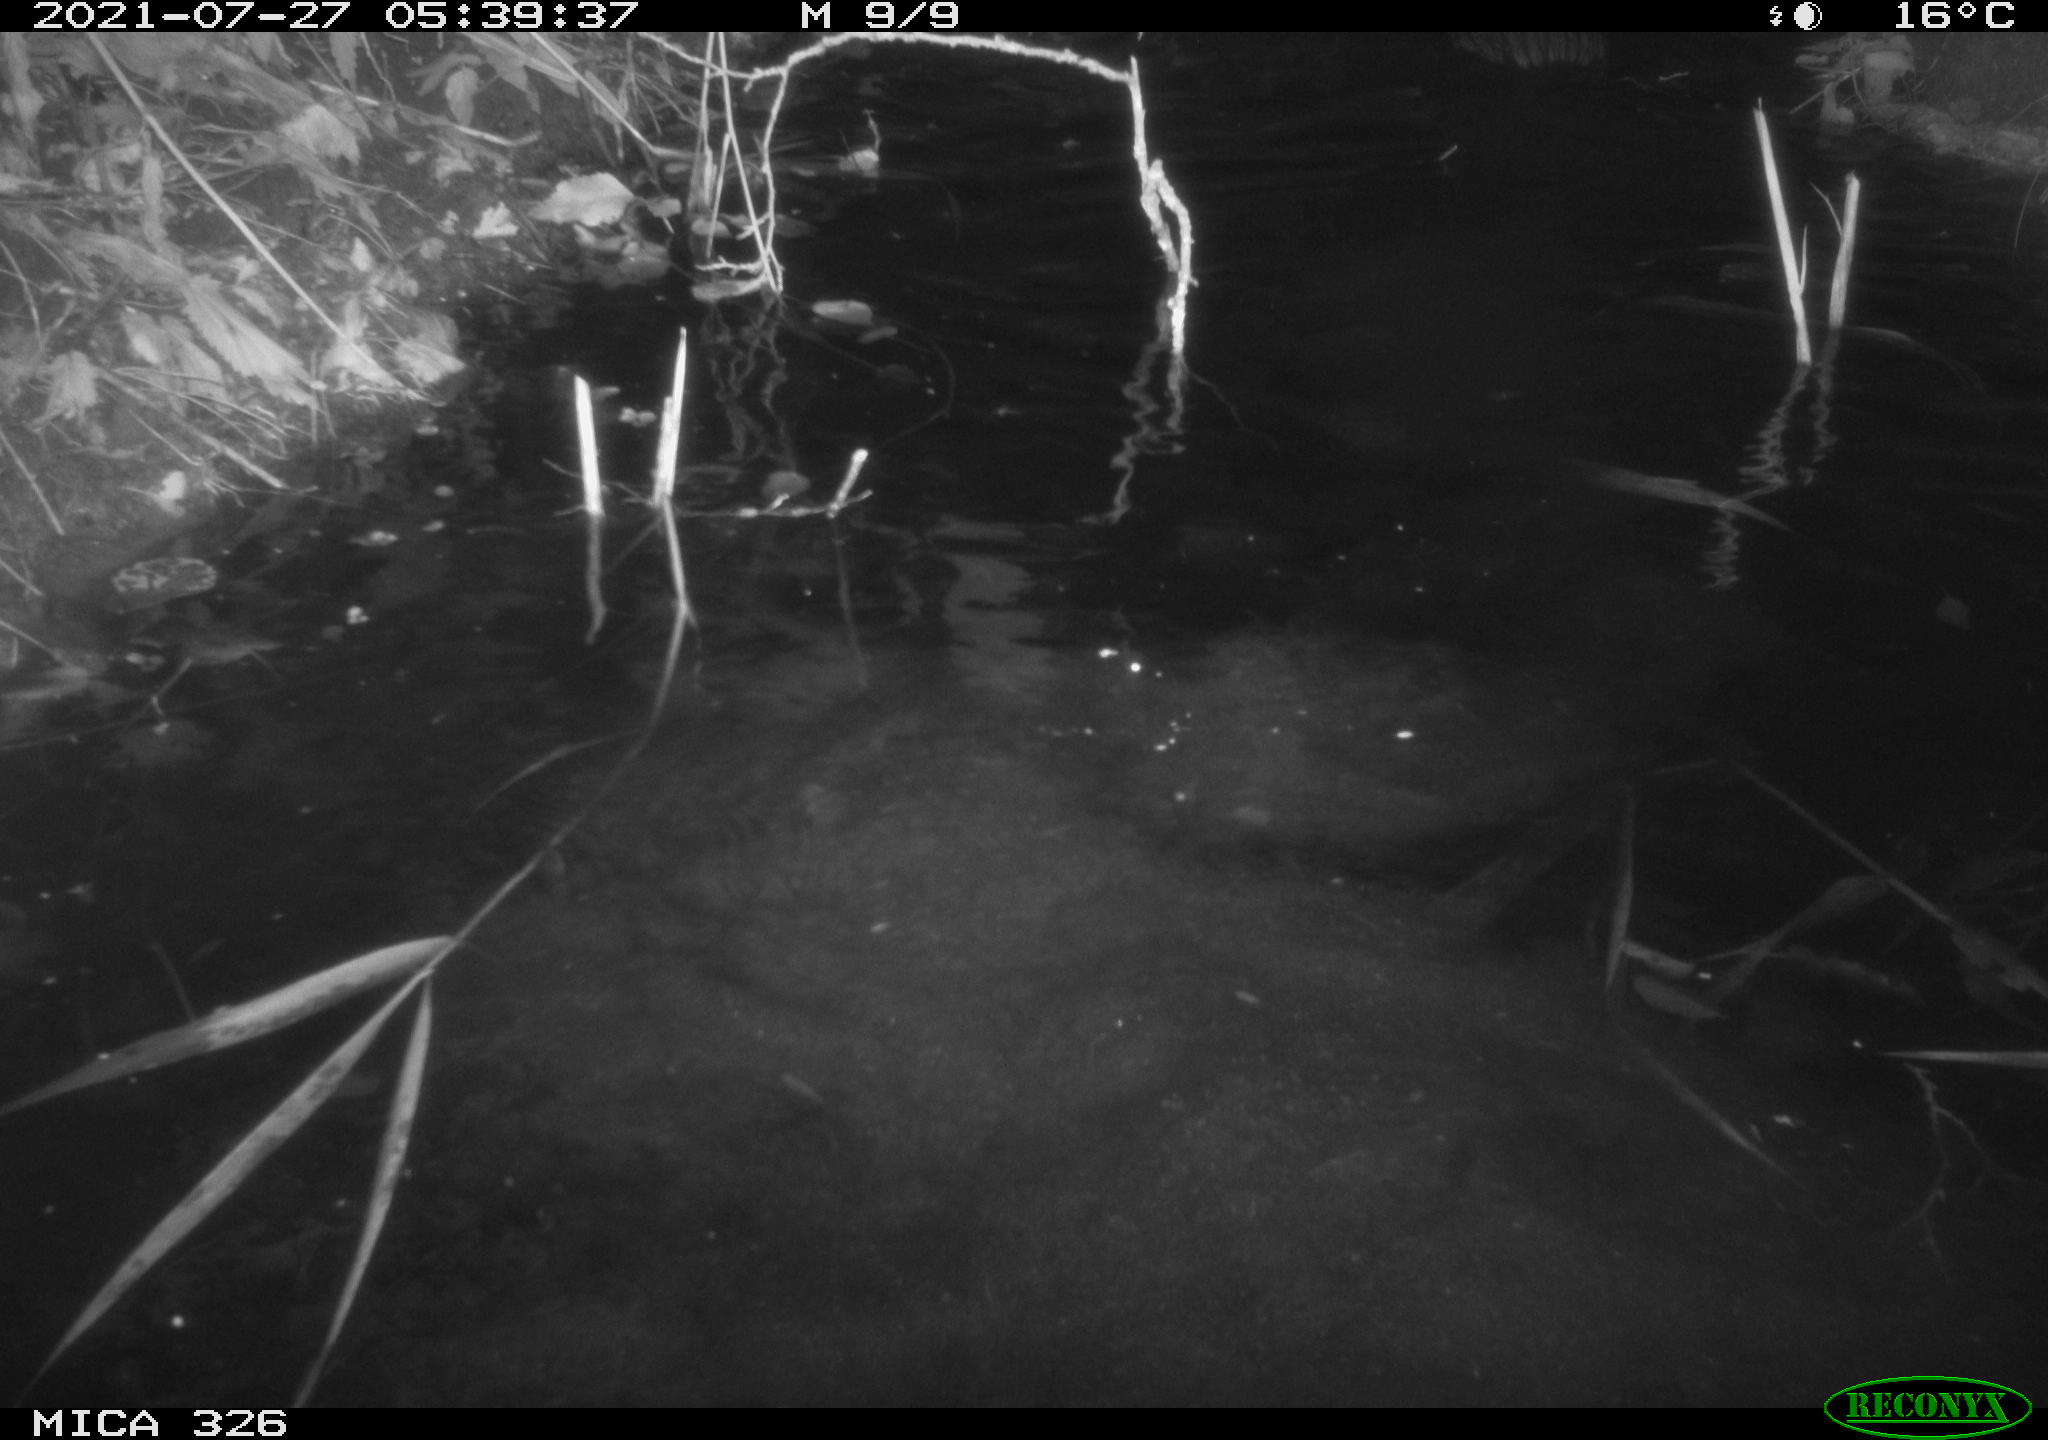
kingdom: Animalia
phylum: Chordata
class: Mammalia
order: Rodentia
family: Myocastoridae
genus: Myocastor
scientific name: Myocastor coypus
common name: Coypu
